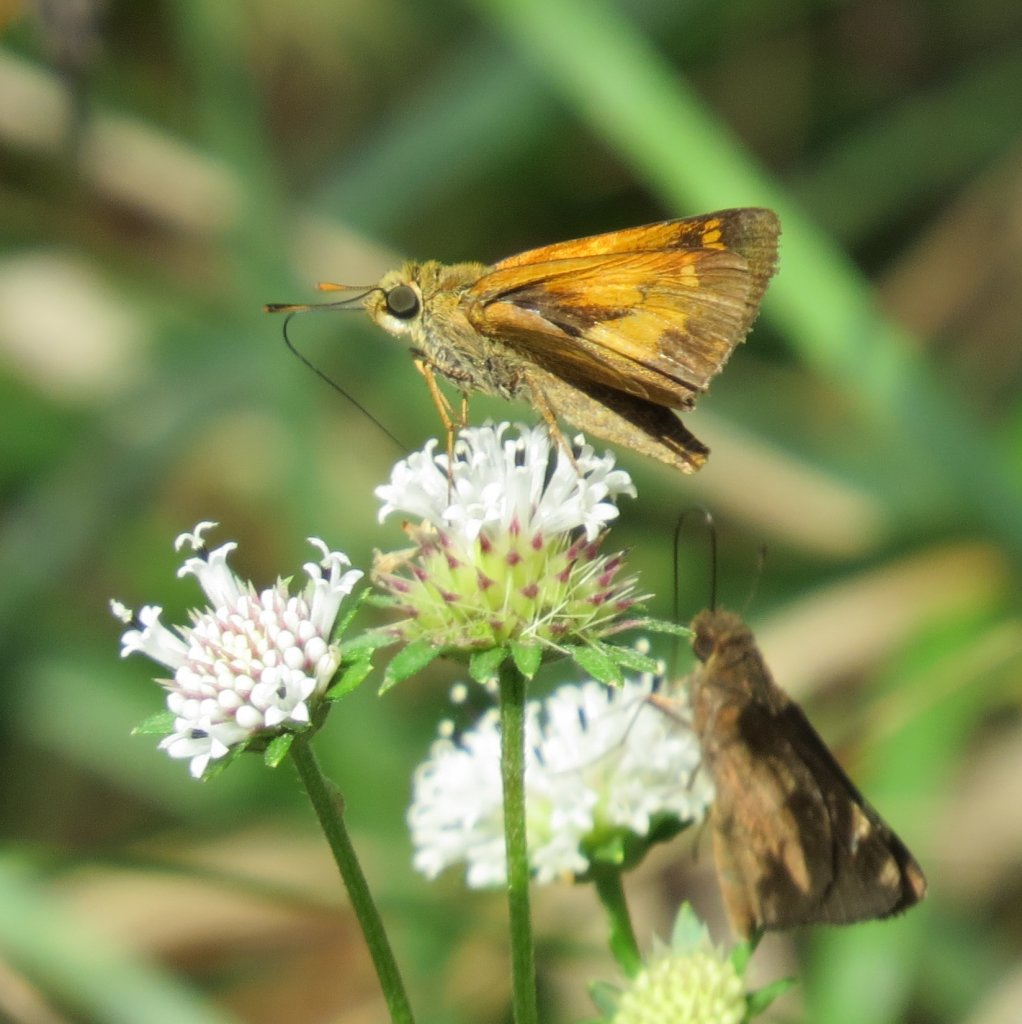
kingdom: Animalia
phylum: Arthropoda
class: Insecta
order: Lepidoptera
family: Hesperiidae
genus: Poanes
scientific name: Poanes yehl
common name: Yehl Skipper
